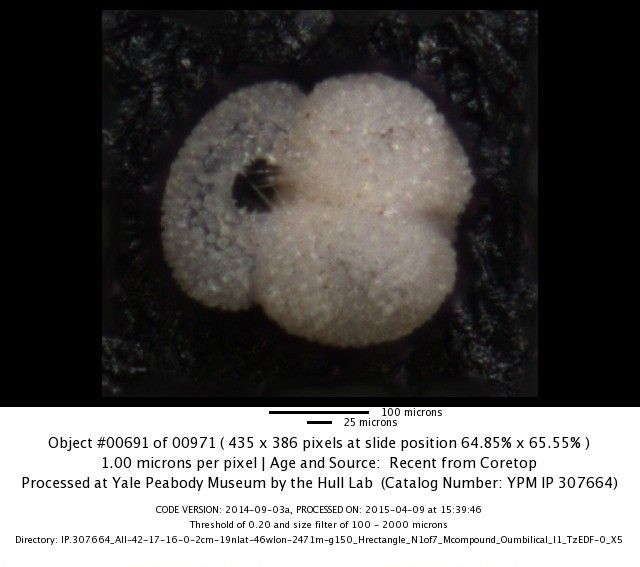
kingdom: Chromista
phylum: Foraminifera
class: Globothalamea
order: Rotaliida
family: Globigerinidae
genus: Globigerinoides
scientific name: Globigerinoides ruber
